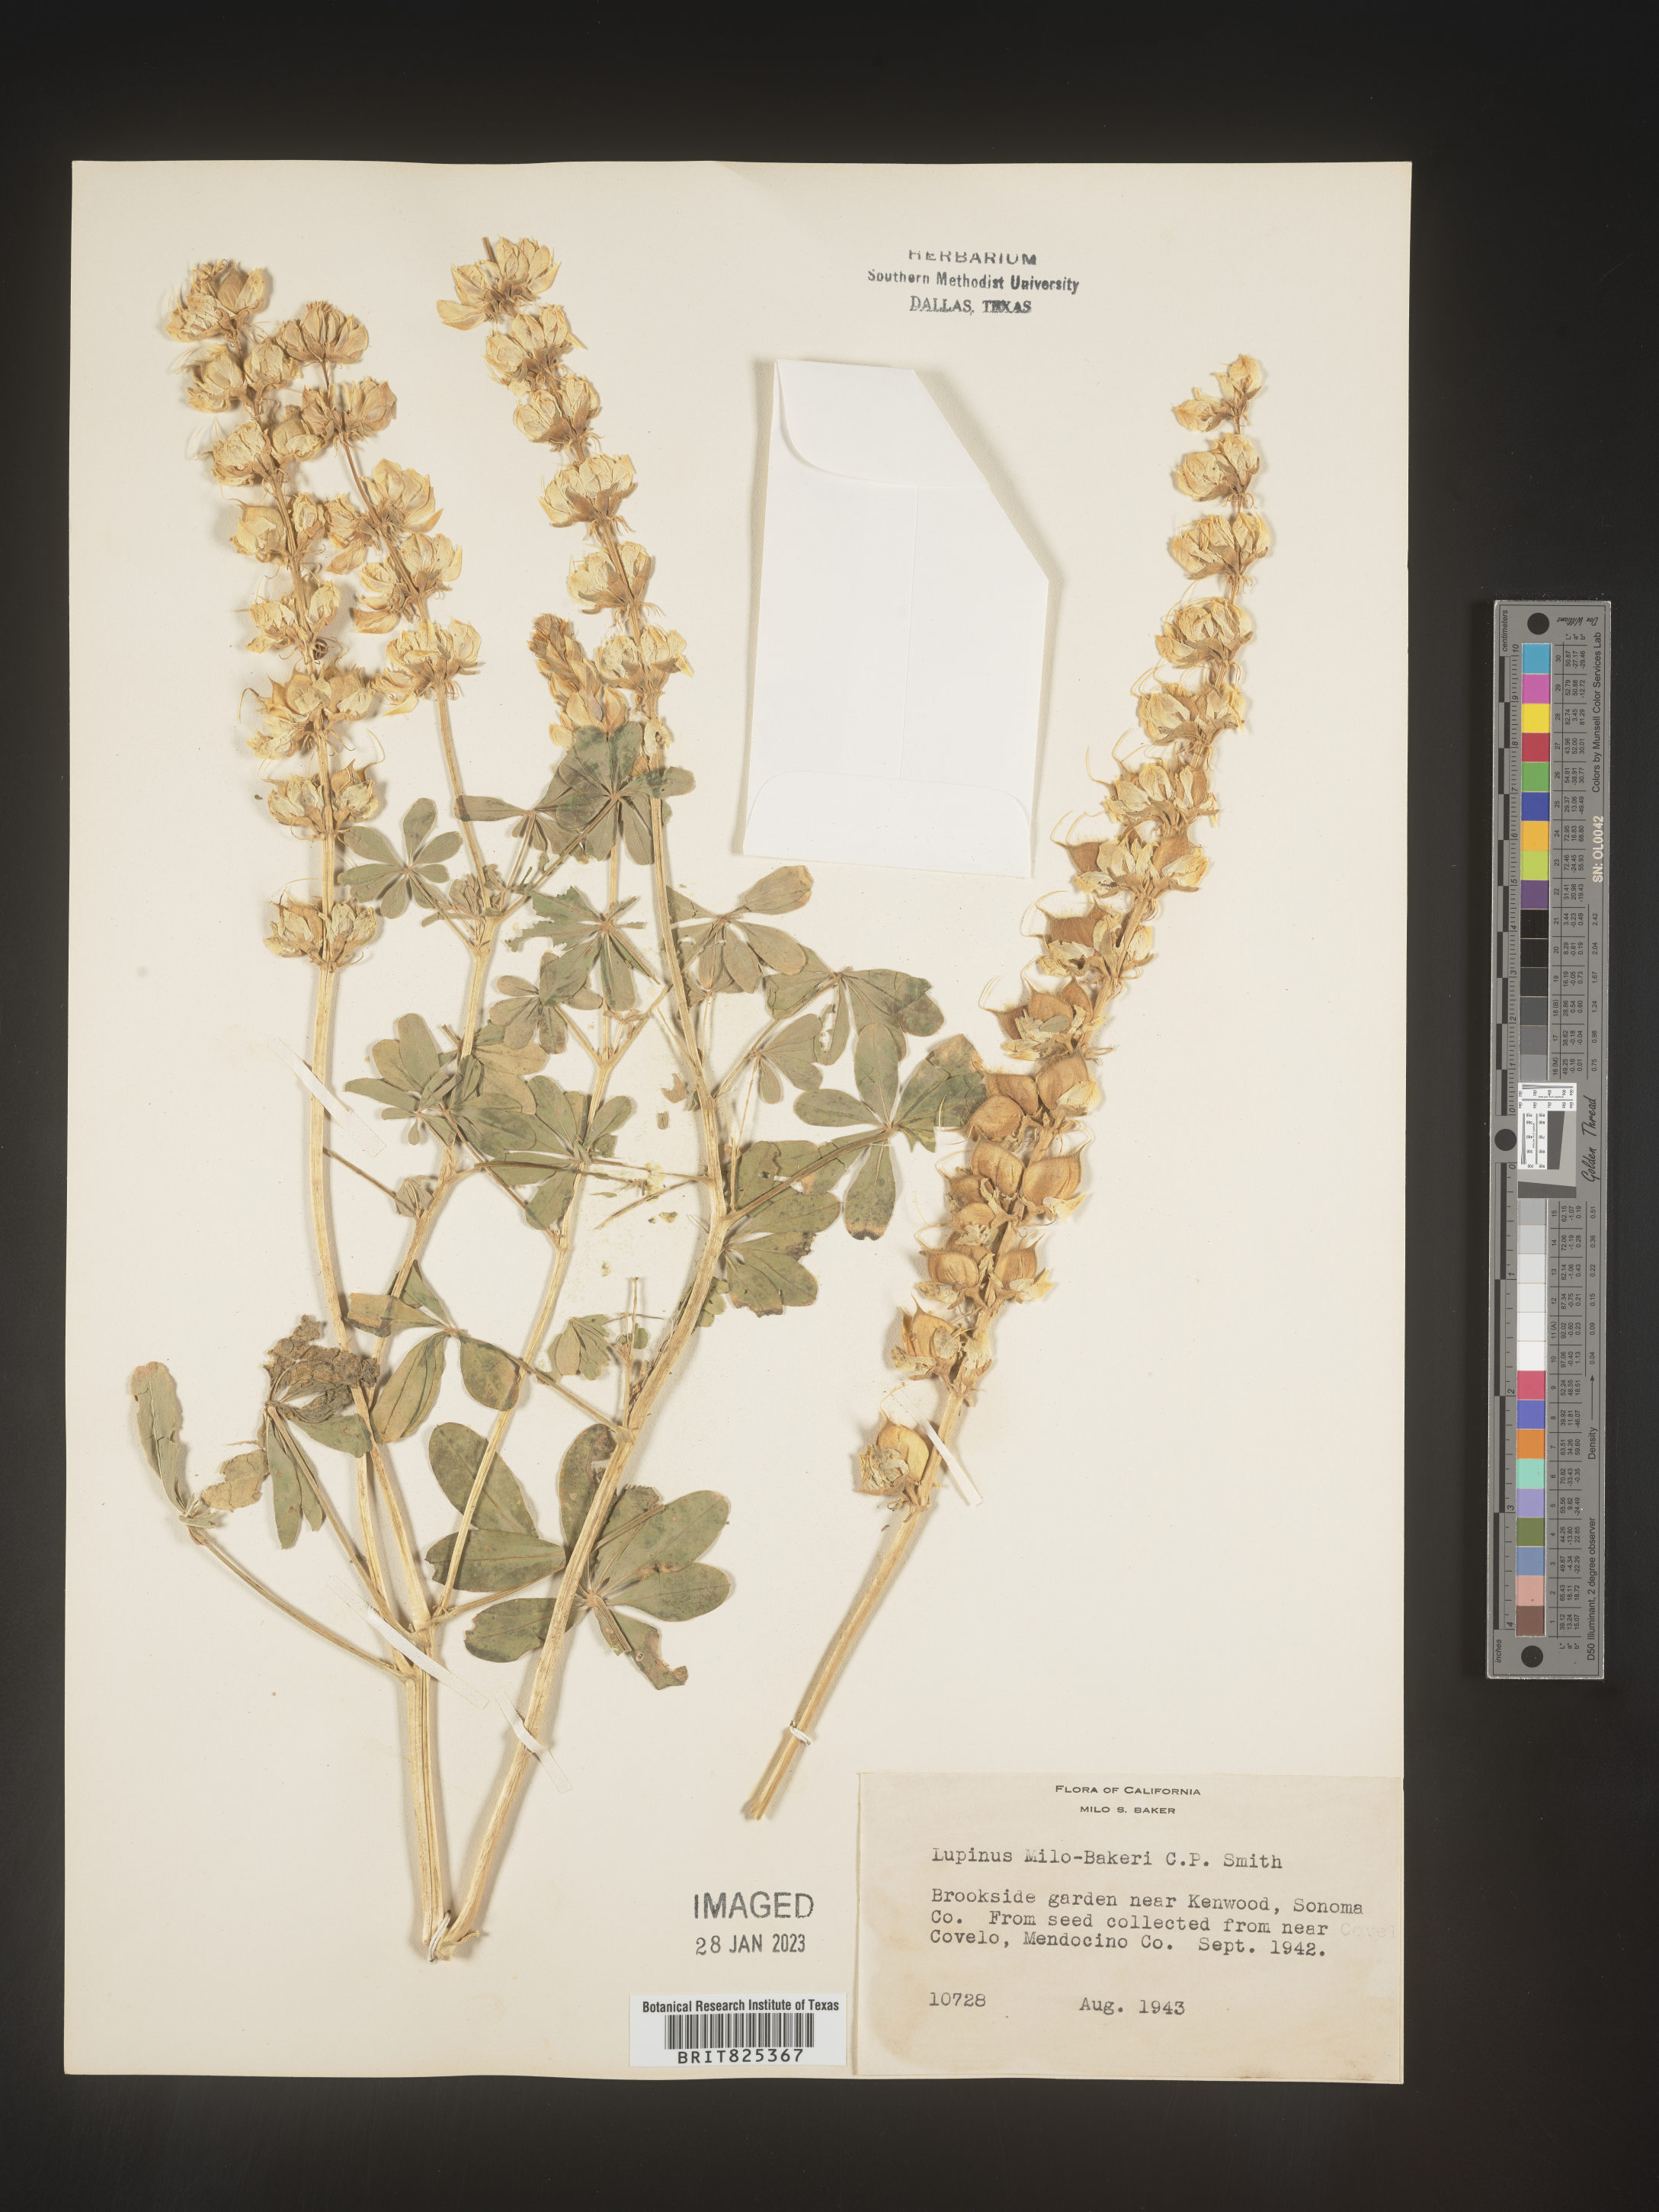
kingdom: Plantae
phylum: Tracheophyta
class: Magnoliopsida
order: Fabales
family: Fabaceae
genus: Lupinus
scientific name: Lupinus
